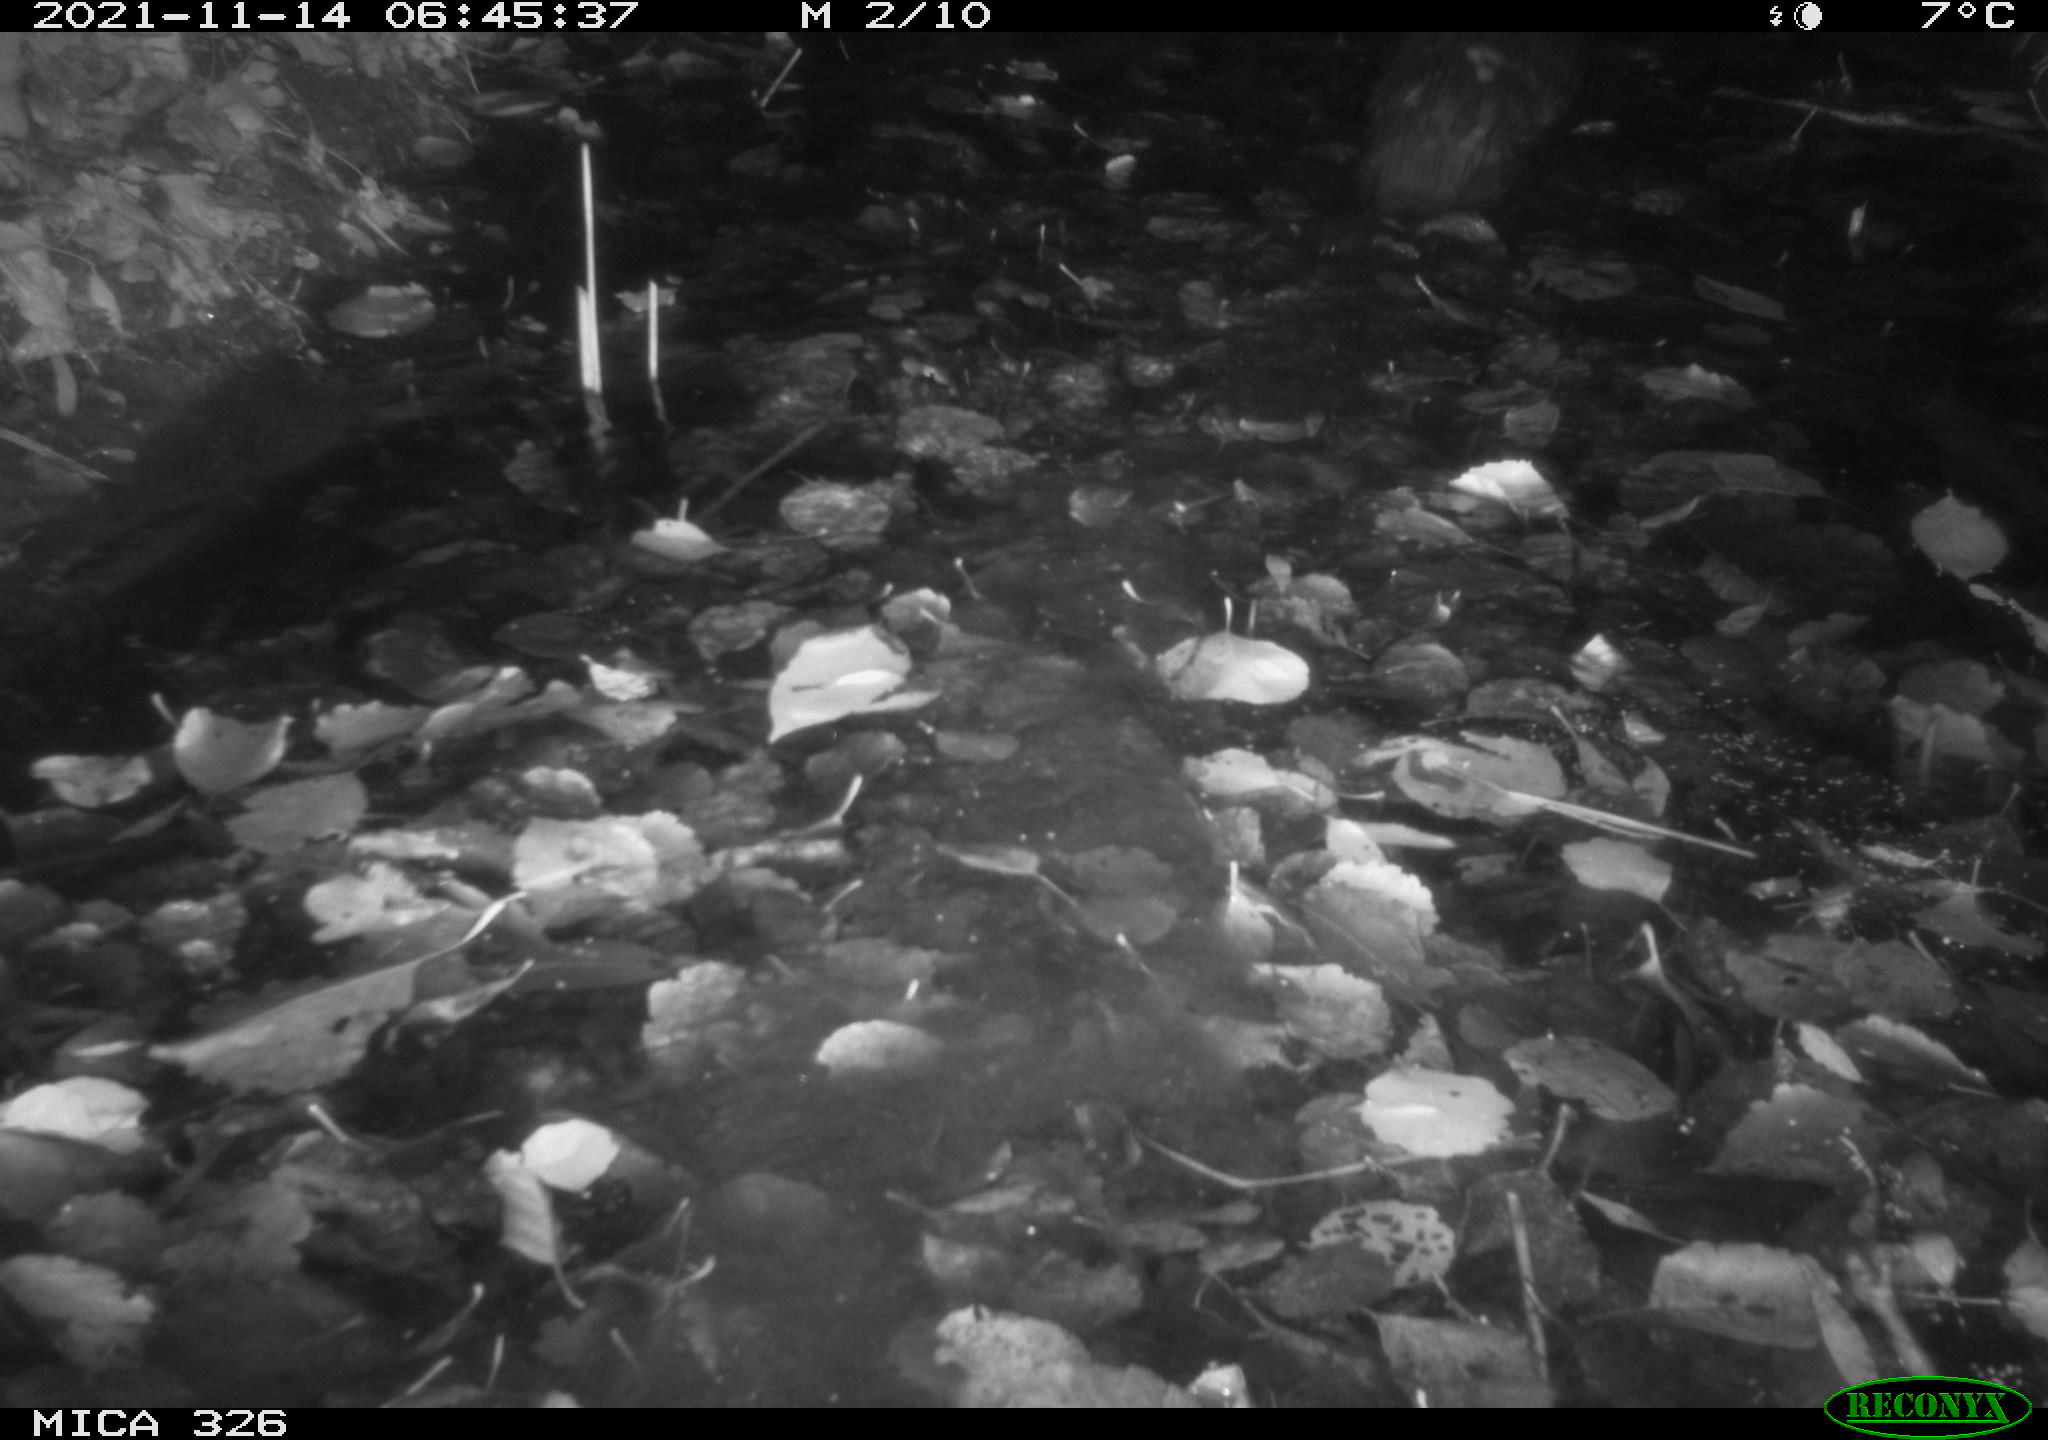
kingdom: Animalia
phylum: Chordata
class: Mammalia
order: Carnivora
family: Mustelidae
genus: Lutra
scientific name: Lutra lutra
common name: European otter
